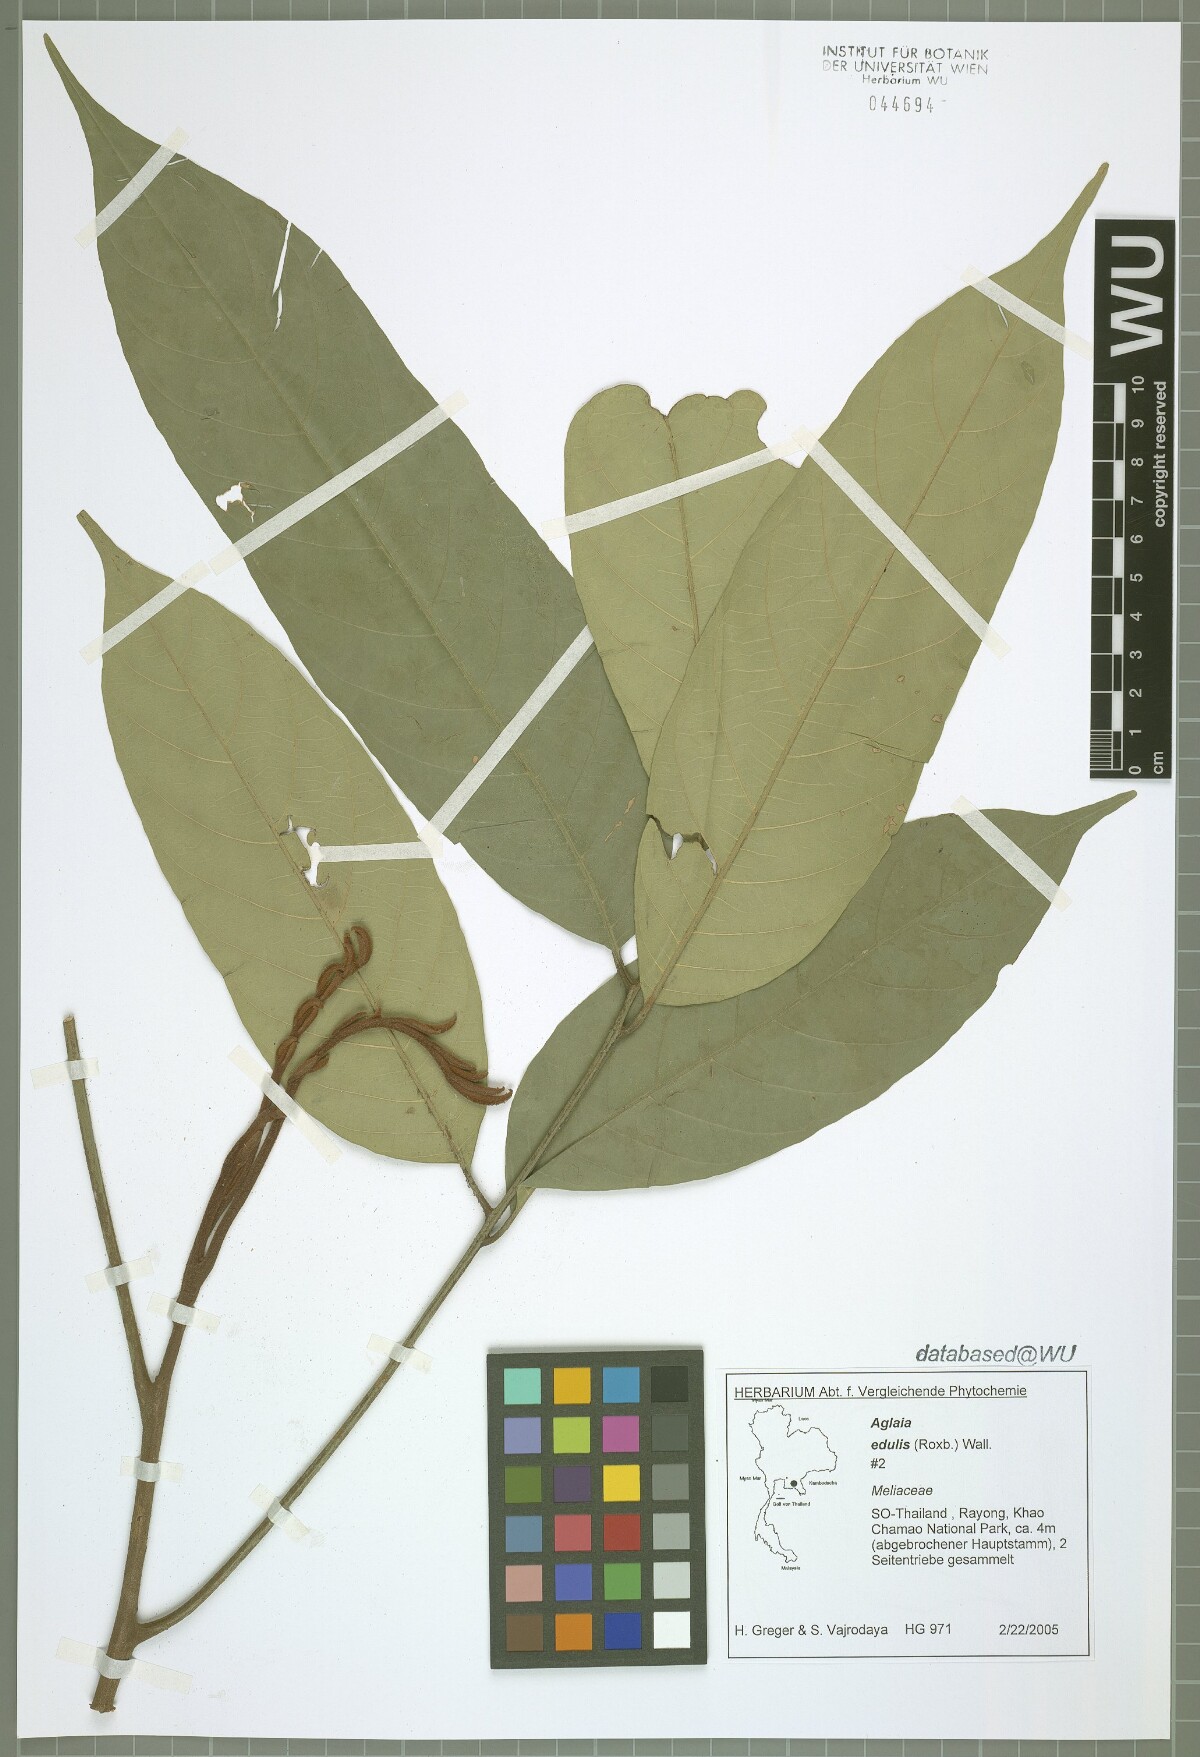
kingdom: Plantae
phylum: Tracheophyta
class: Magnoliopsida
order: Sapindales
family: Meliaceae
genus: Aglaia
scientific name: Aglaia edulis
